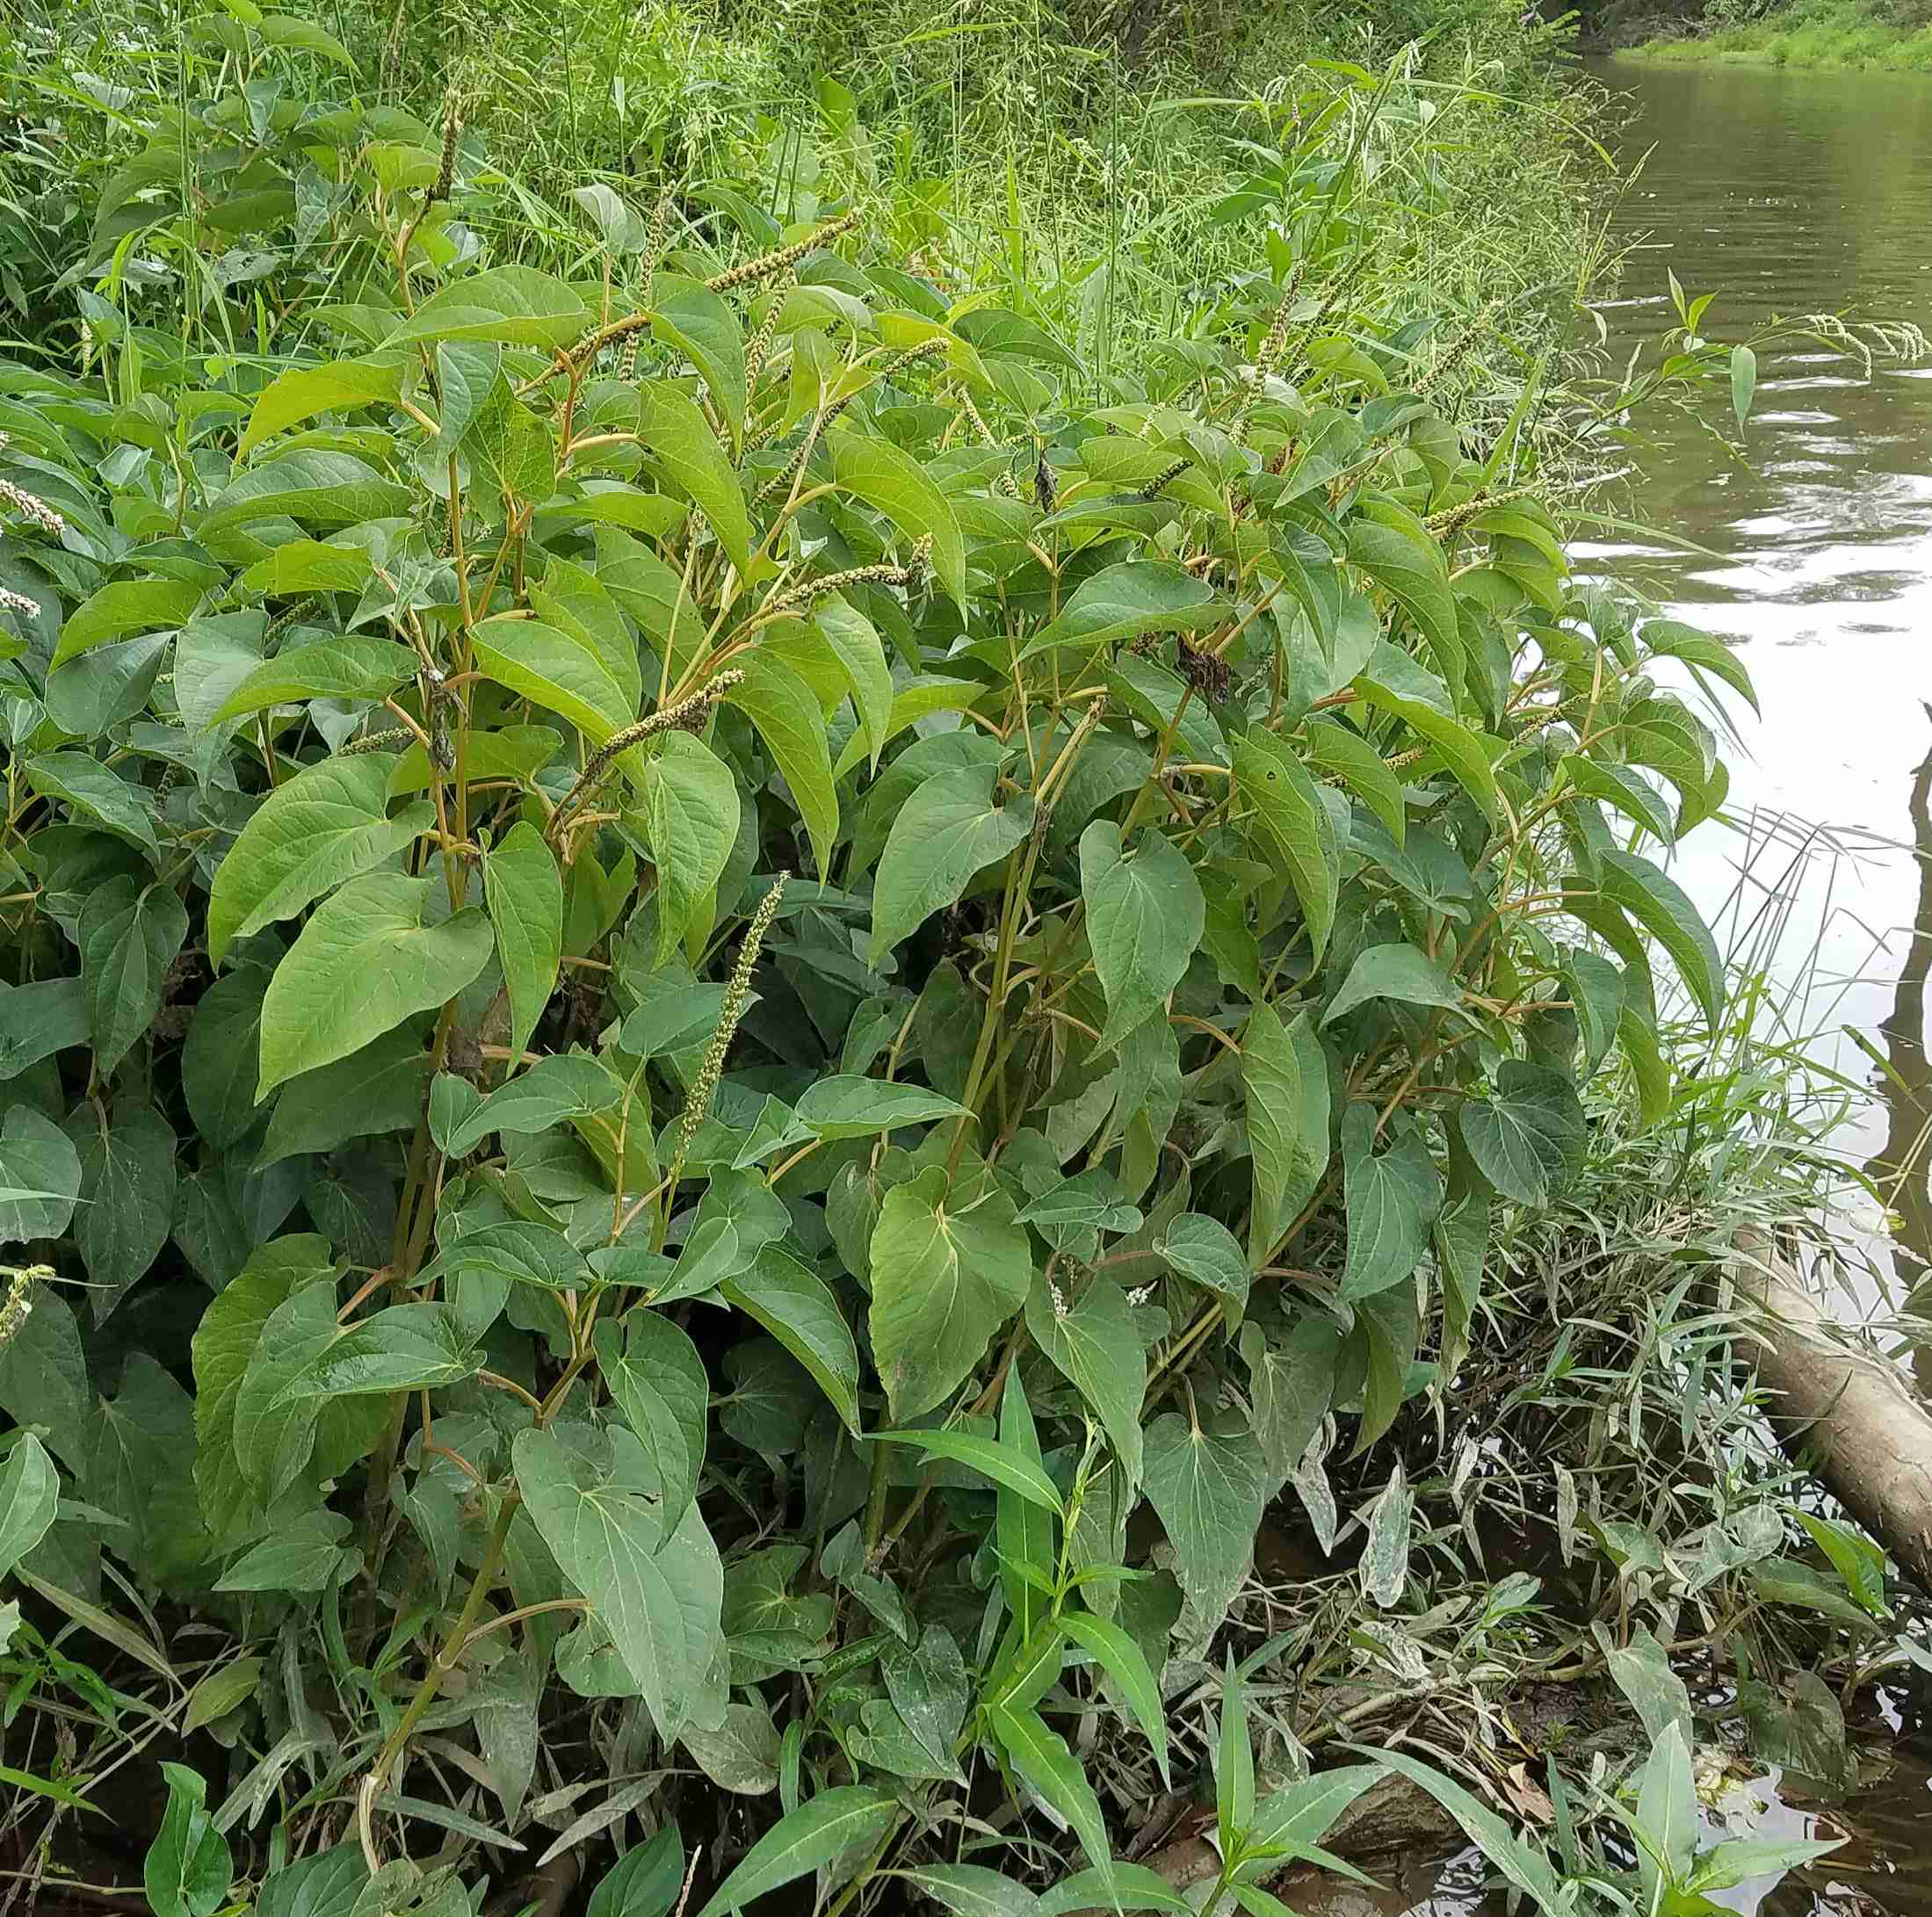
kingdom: Plantae
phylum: Tracheophyta
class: Magnoliopsida
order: Piperales
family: Saururaceae
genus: Saururus
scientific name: Saururus cernuus
